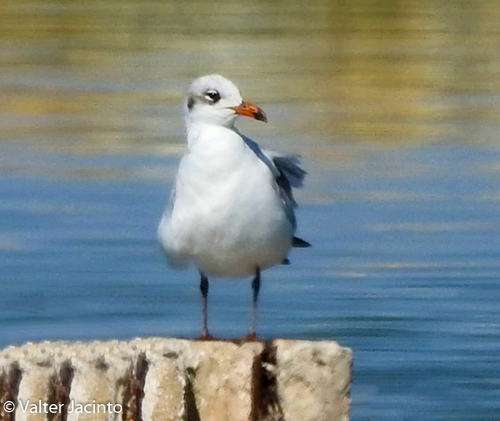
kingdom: Animalia
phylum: Chordata
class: Aves
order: Charadriiformes
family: Laridae
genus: Ichthyaetus
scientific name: Ichthyaetus melanocephalus
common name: Mediterranean gull
